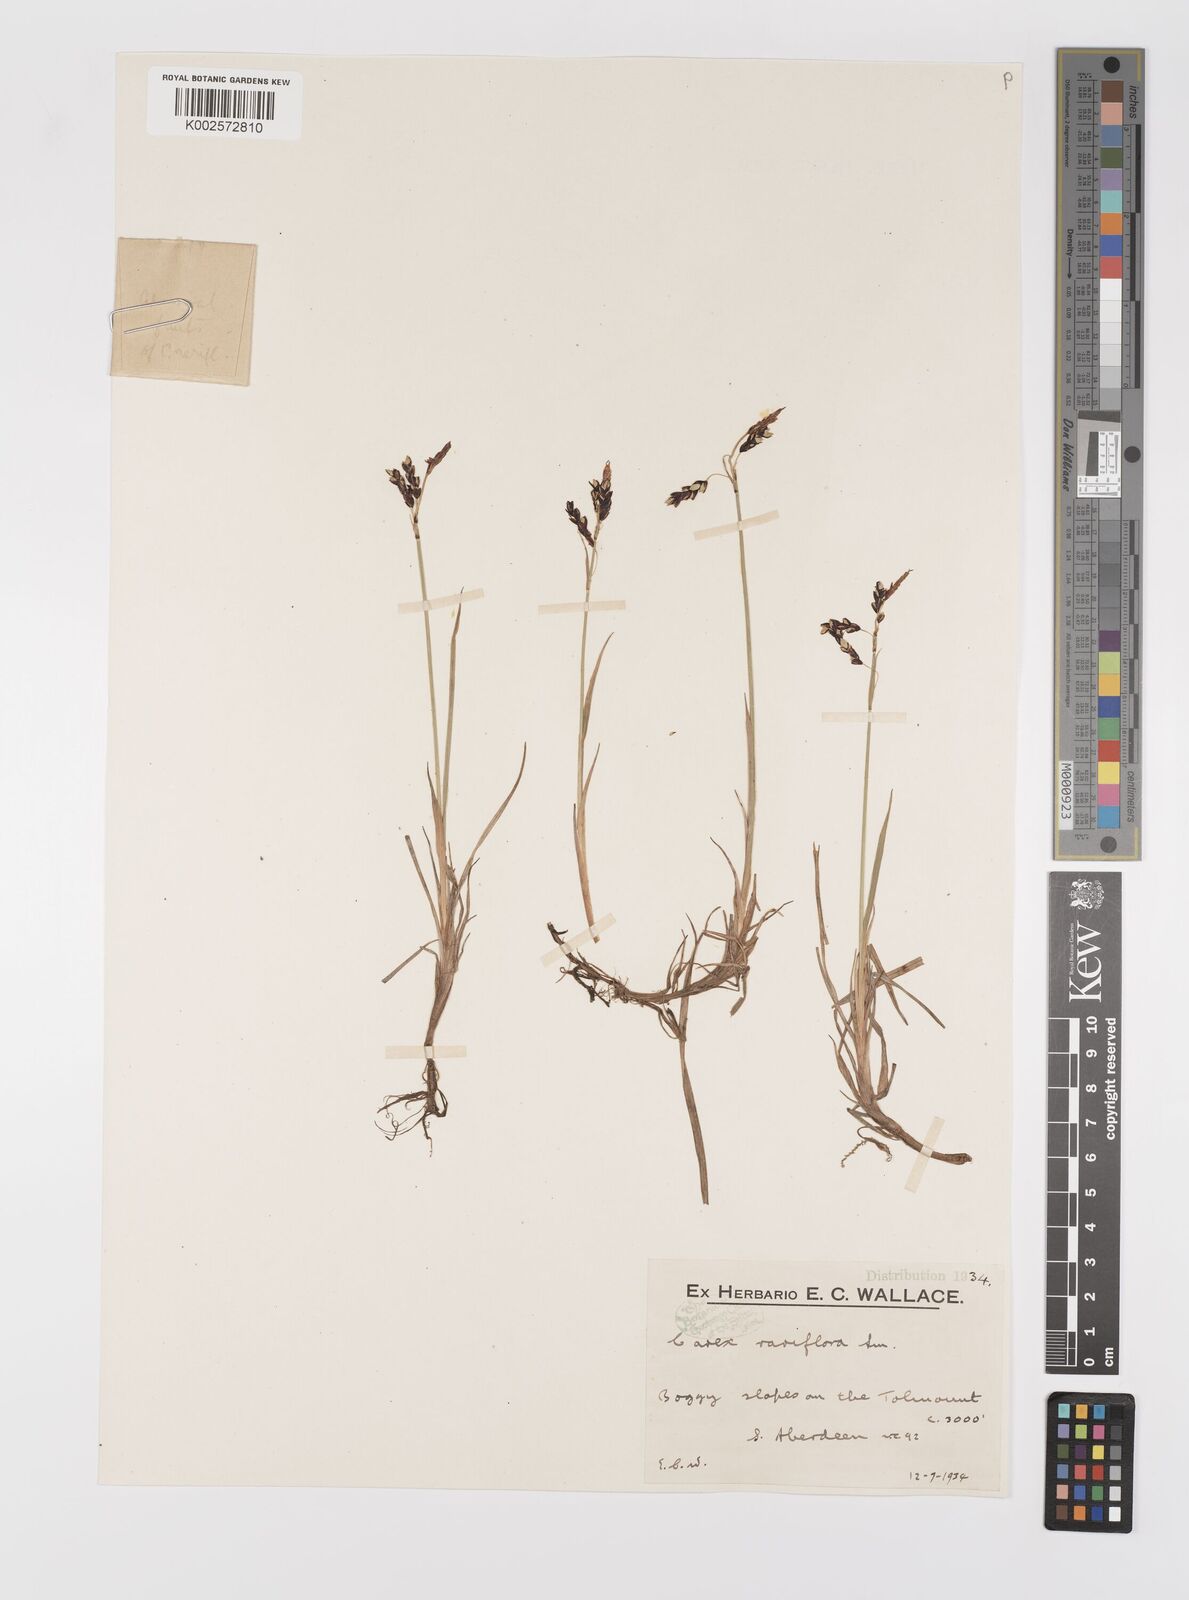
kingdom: Plantae
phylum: Tracheophyta
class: Liliopsida
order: Poales
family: Cyperaceae
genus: Carex
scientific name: Carex rariflora
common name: Loose-flowered alpine sedge
